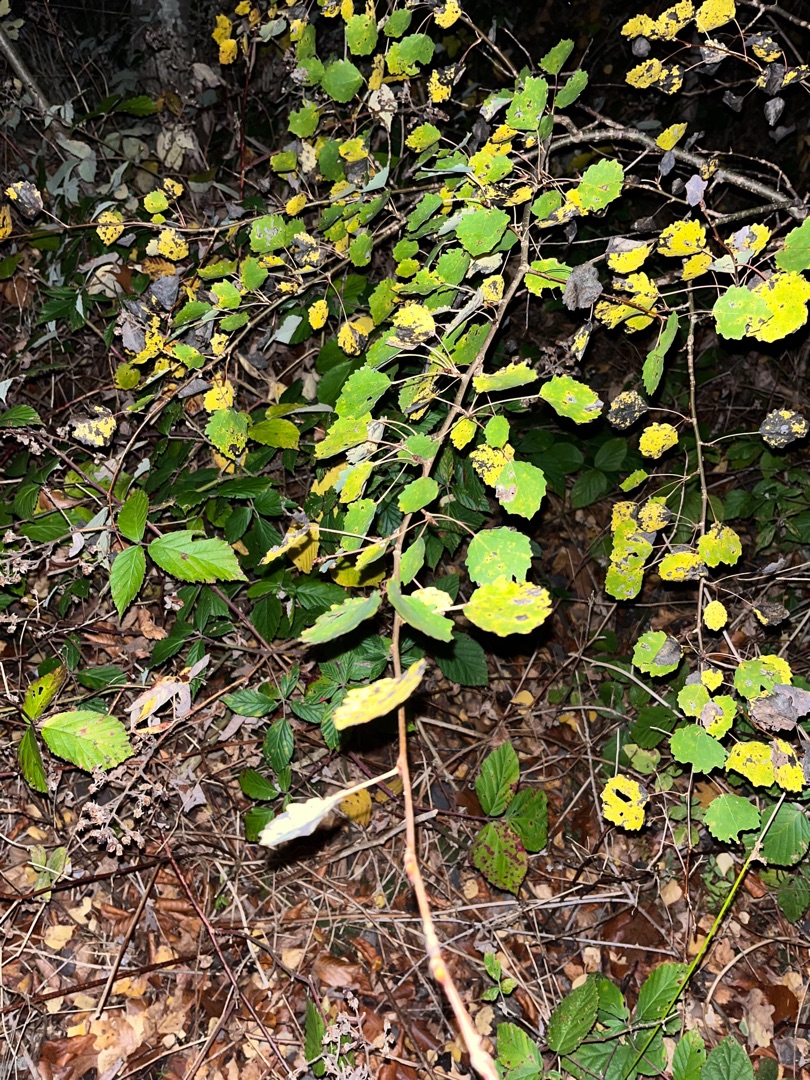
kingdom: Plantae
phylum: Tracheophyta
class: Magnoliopsida
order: Malpighiales
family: Salicaceae
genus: Populus
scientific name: Populus tremula
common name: Bævreasp
